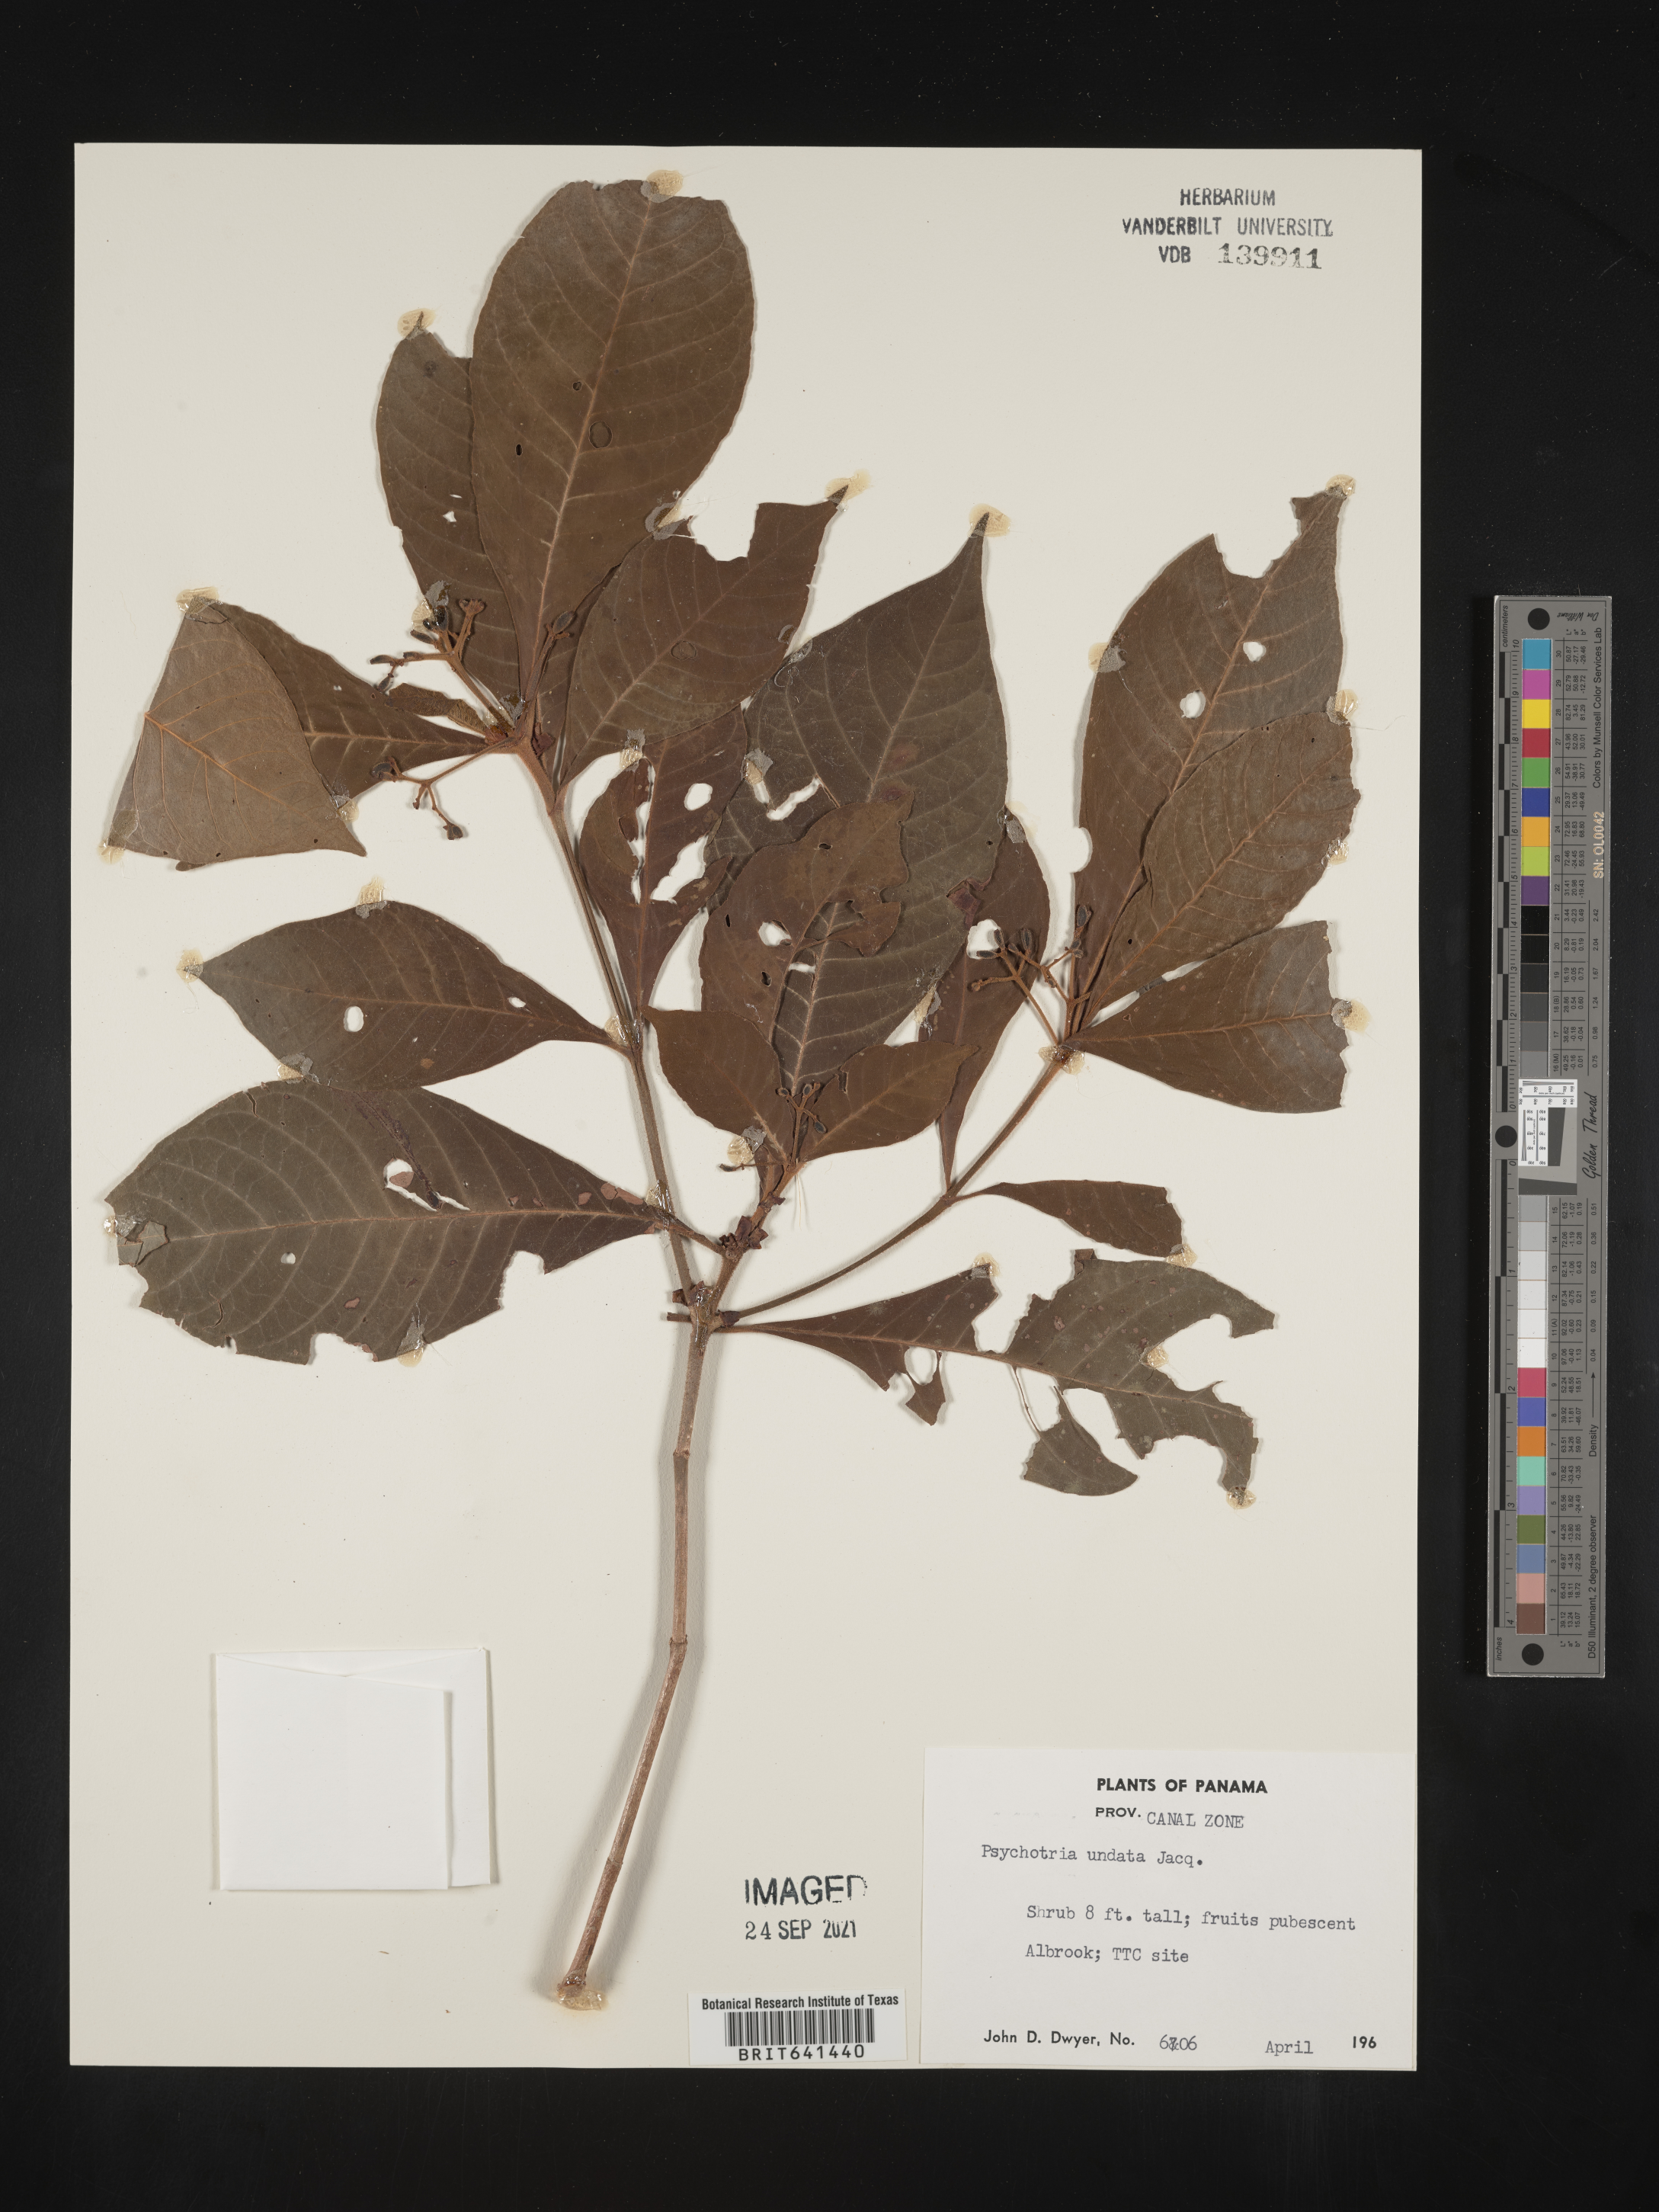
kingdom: Plantae
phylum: Tracheophyta
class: Magnoliopsida
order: Gentianales
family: Rubiaceae
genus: Psychotria
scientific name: Psychotria
